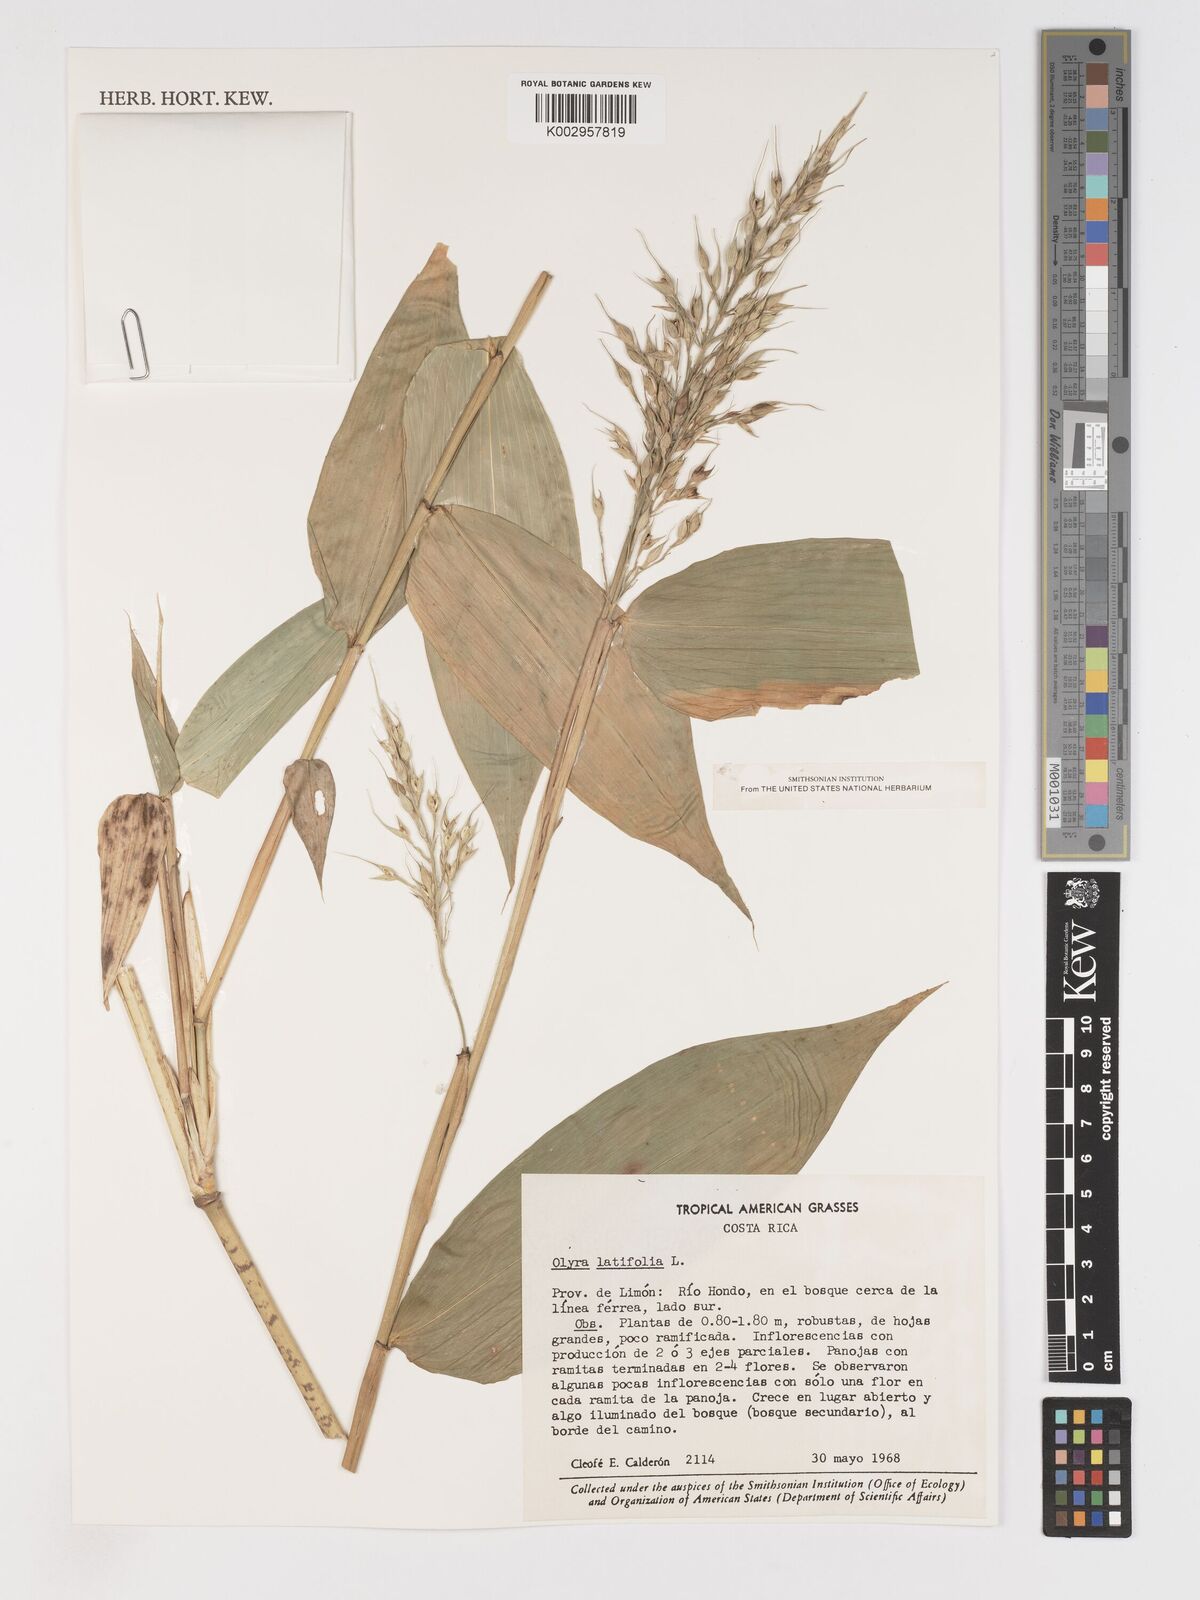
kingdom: Plantae
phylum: Tracheophyta
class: Liliopsida
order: Poales
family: Poaceae
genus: Olyra
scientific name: Olyra latifolia
